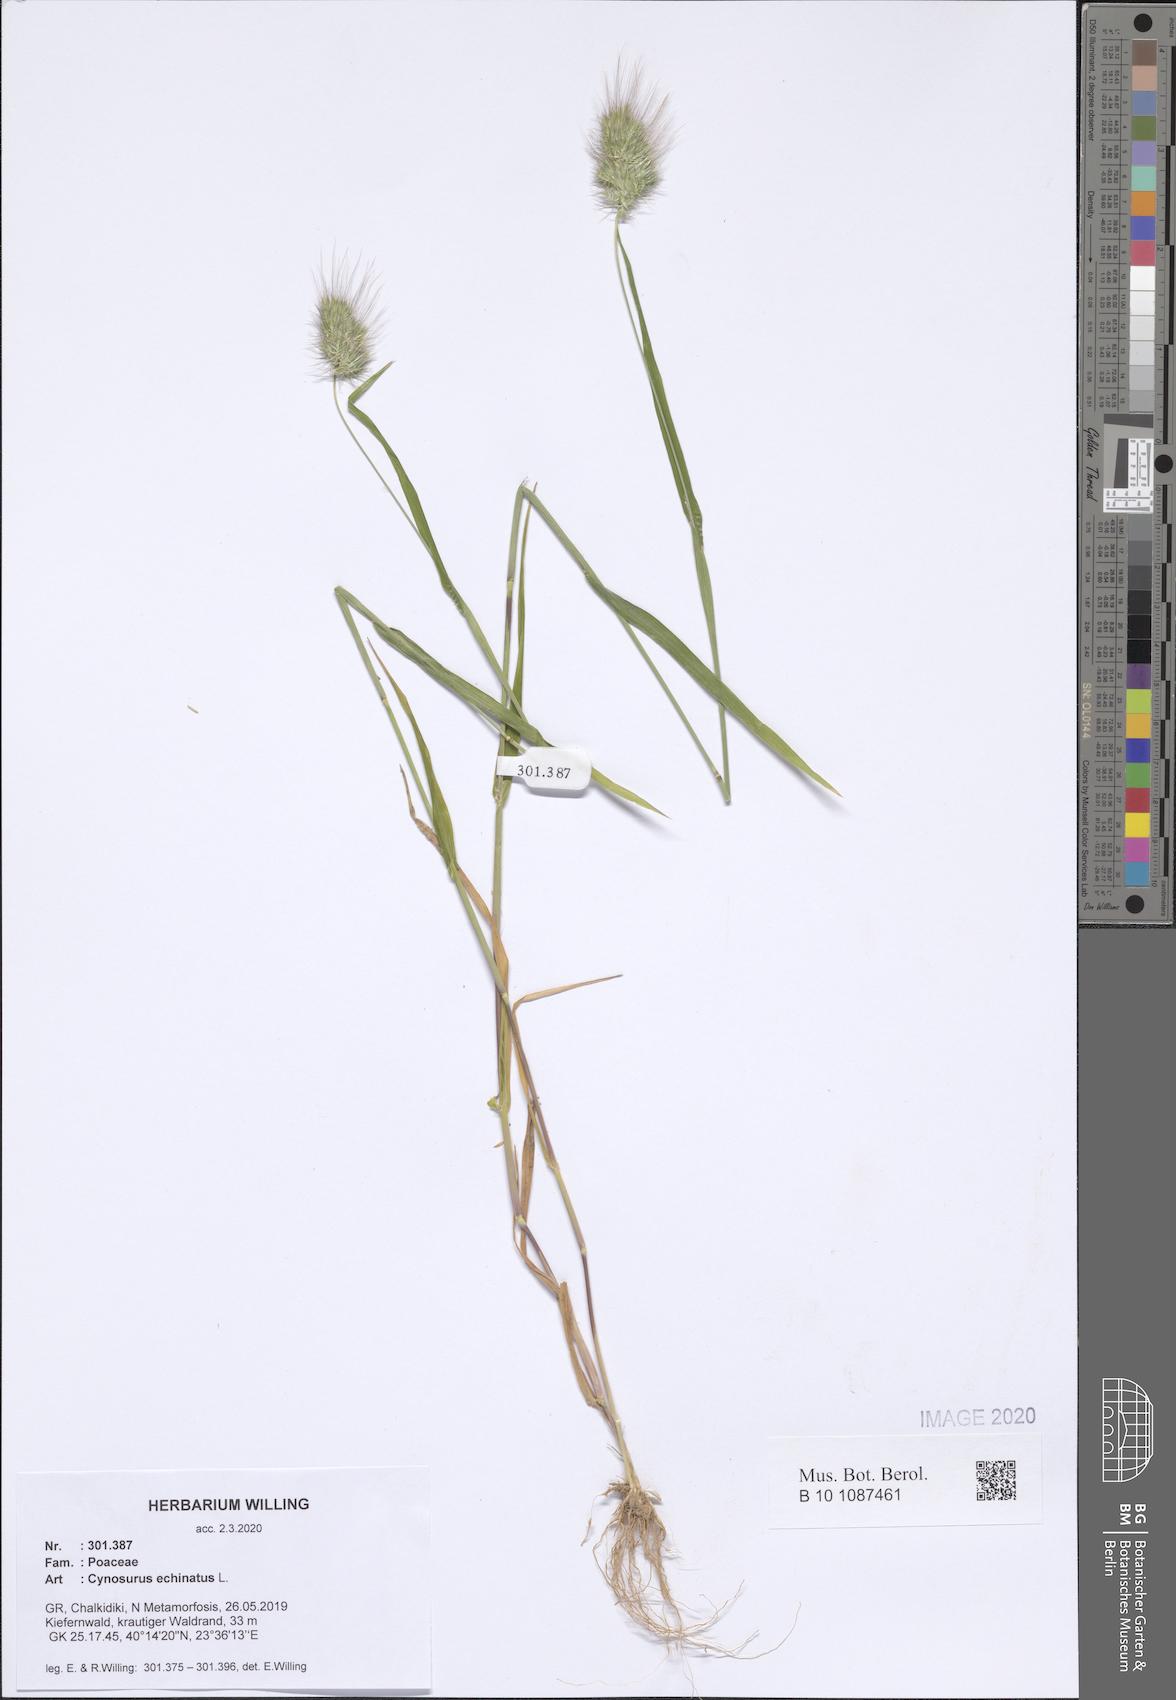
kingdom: Plantae
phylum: Tracheophyta
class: Liliopsida
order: Poales
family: Poaceae
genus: Cynosurus
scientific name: Cynosurus echinatus
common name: Rough dog's-tail
